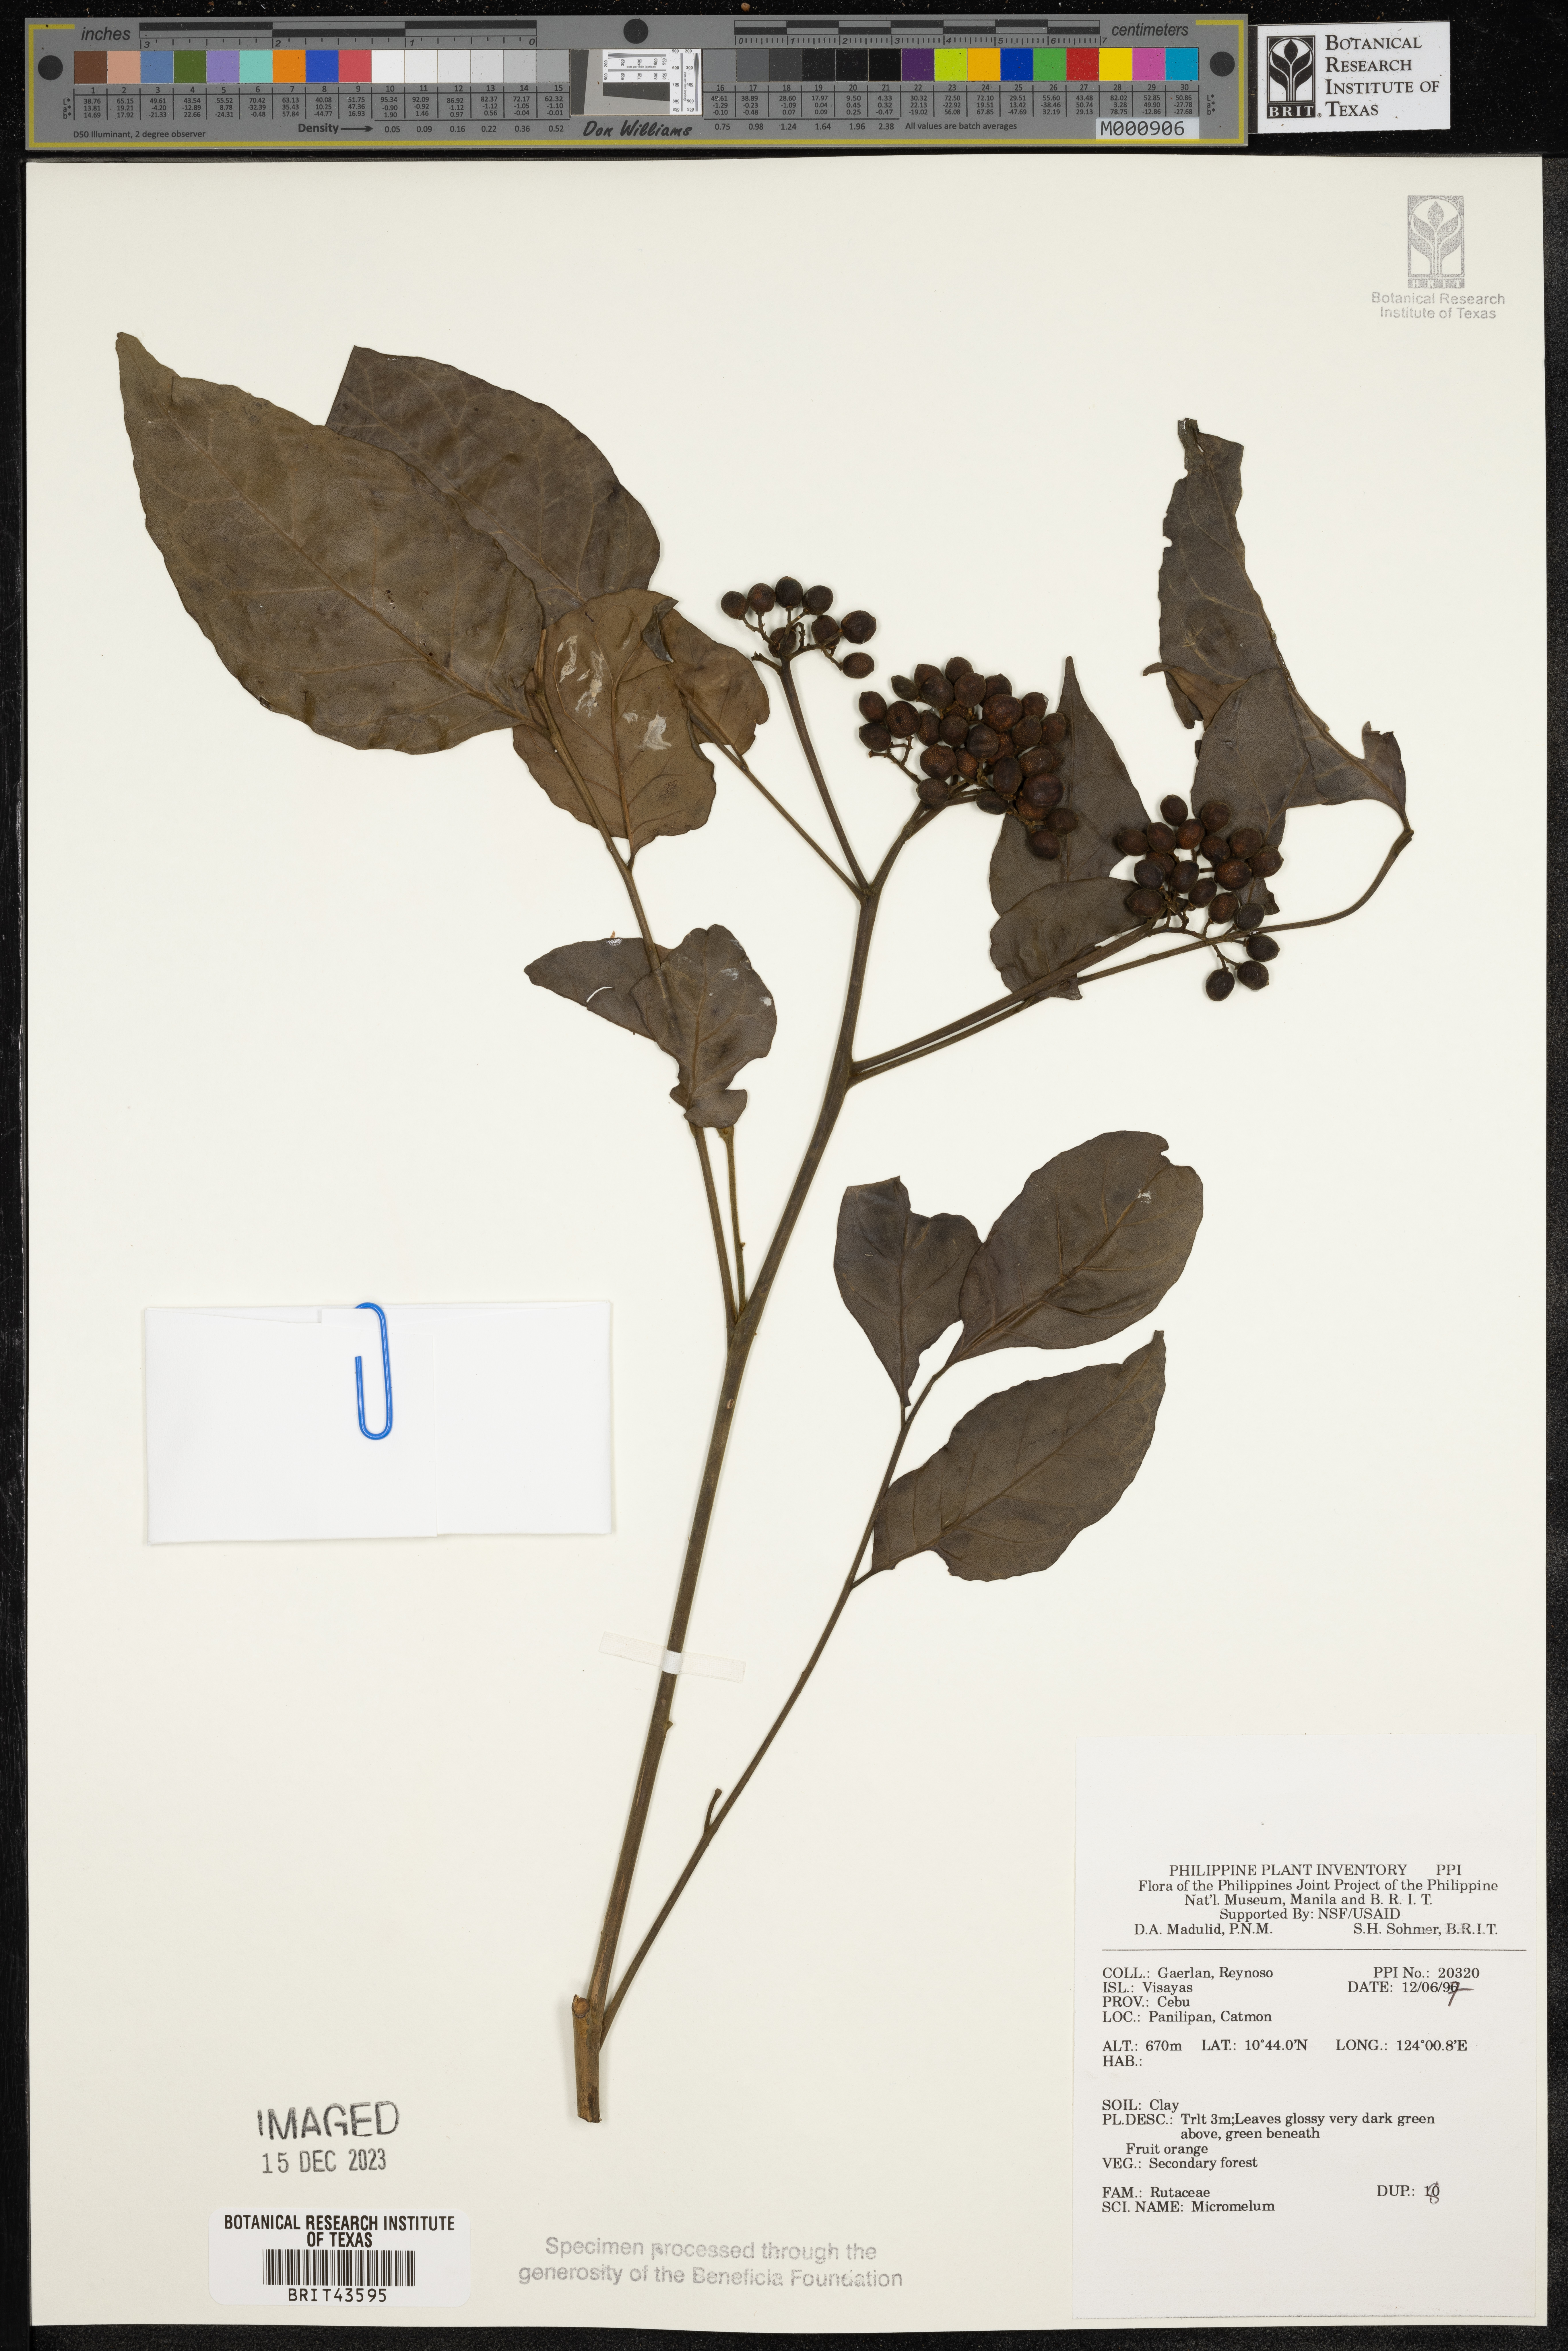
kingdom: Plantae
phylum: Tracheophyta
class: Magnoliopsida
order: Sapindales
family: Rutaceae
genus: Micromelum
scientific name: Micromelum
